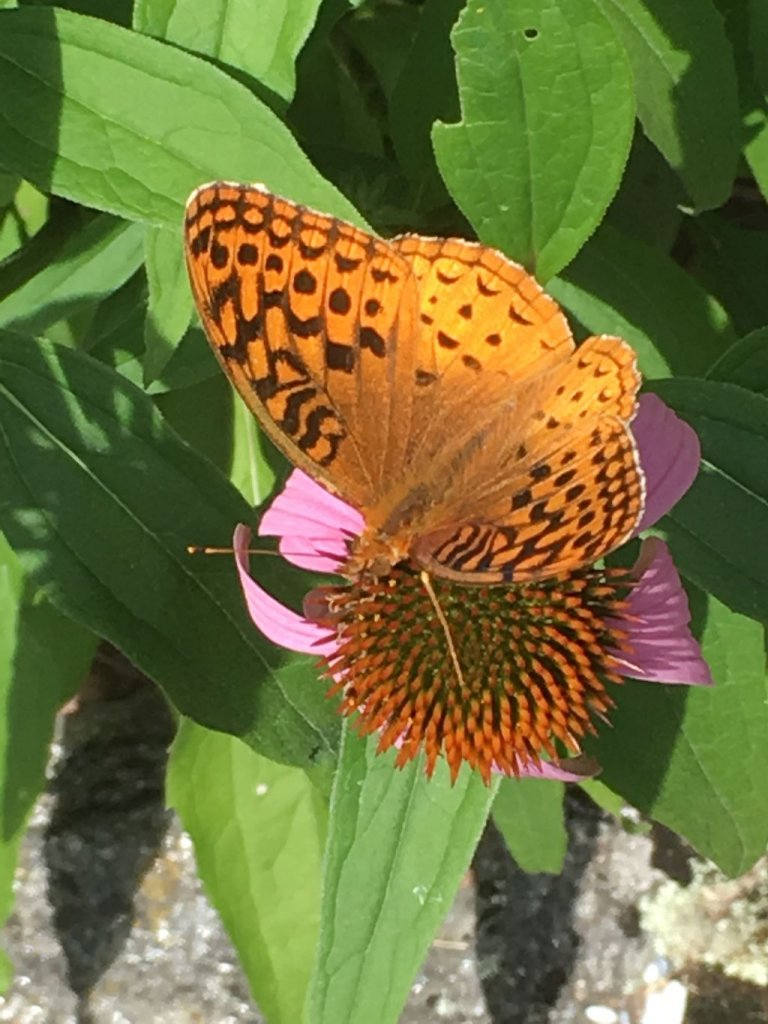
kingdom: Animalia
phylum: Arthropoda
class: Insecta
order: Lepidoptera
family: Nymphalidae
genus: Speyeria
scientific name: Speyeria cybele
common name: Great Spangled Fritillary
